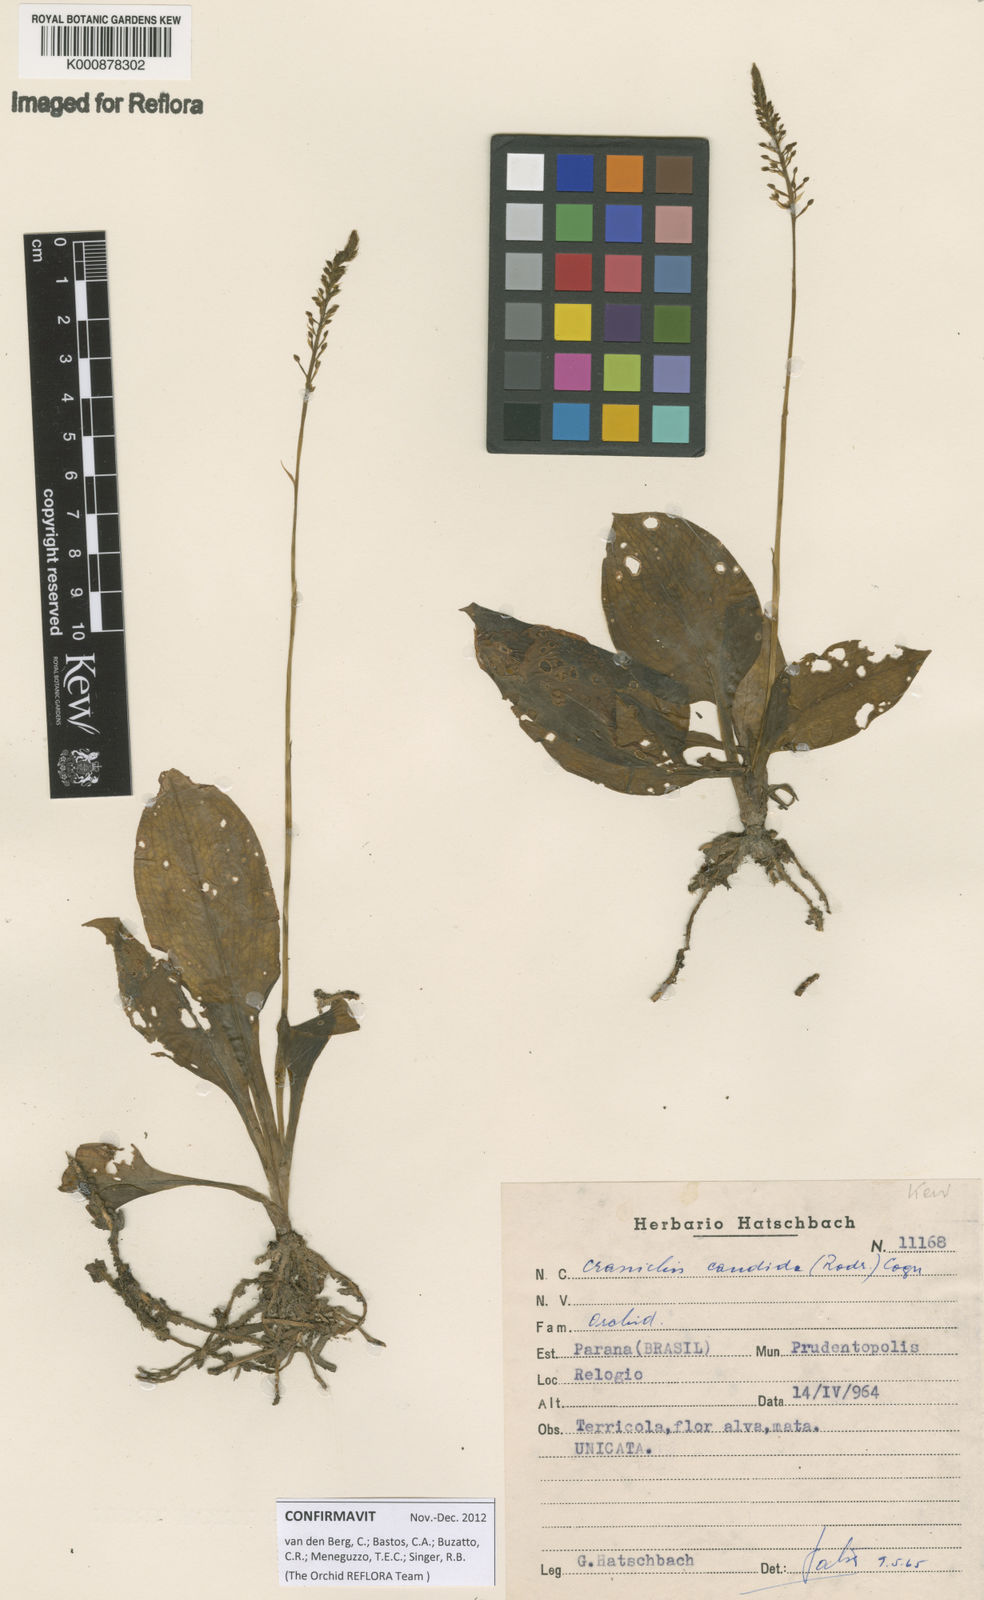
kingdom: Plantae
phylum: Tracheophyta
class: Liliopsida
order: Asparagales
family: Orchidaceae
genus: Cranichis
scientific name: Cranichis candida
